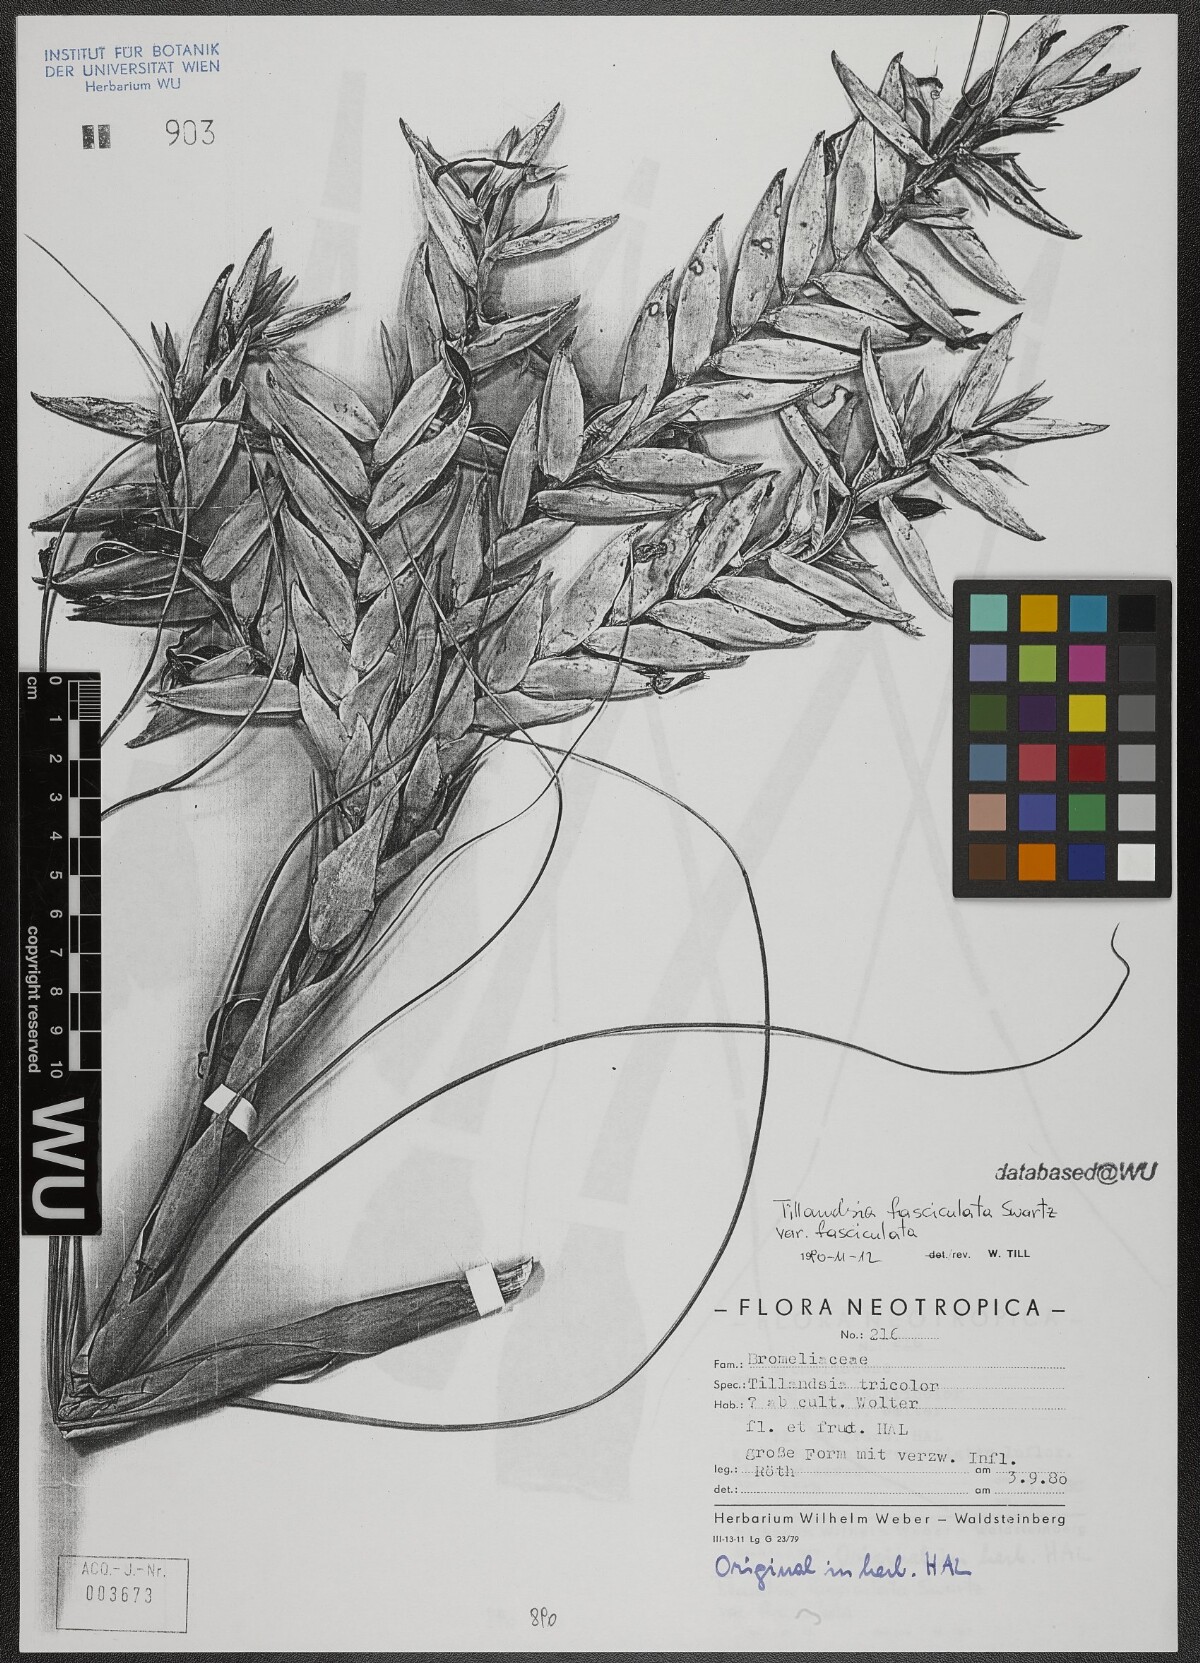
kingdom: Plantae
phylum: Tracheophyta
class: Liliopsida
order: Poales
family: Bromeliaceae
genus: Tillandsia
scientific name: Tillandsia fasciculata
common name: Giant airplant
